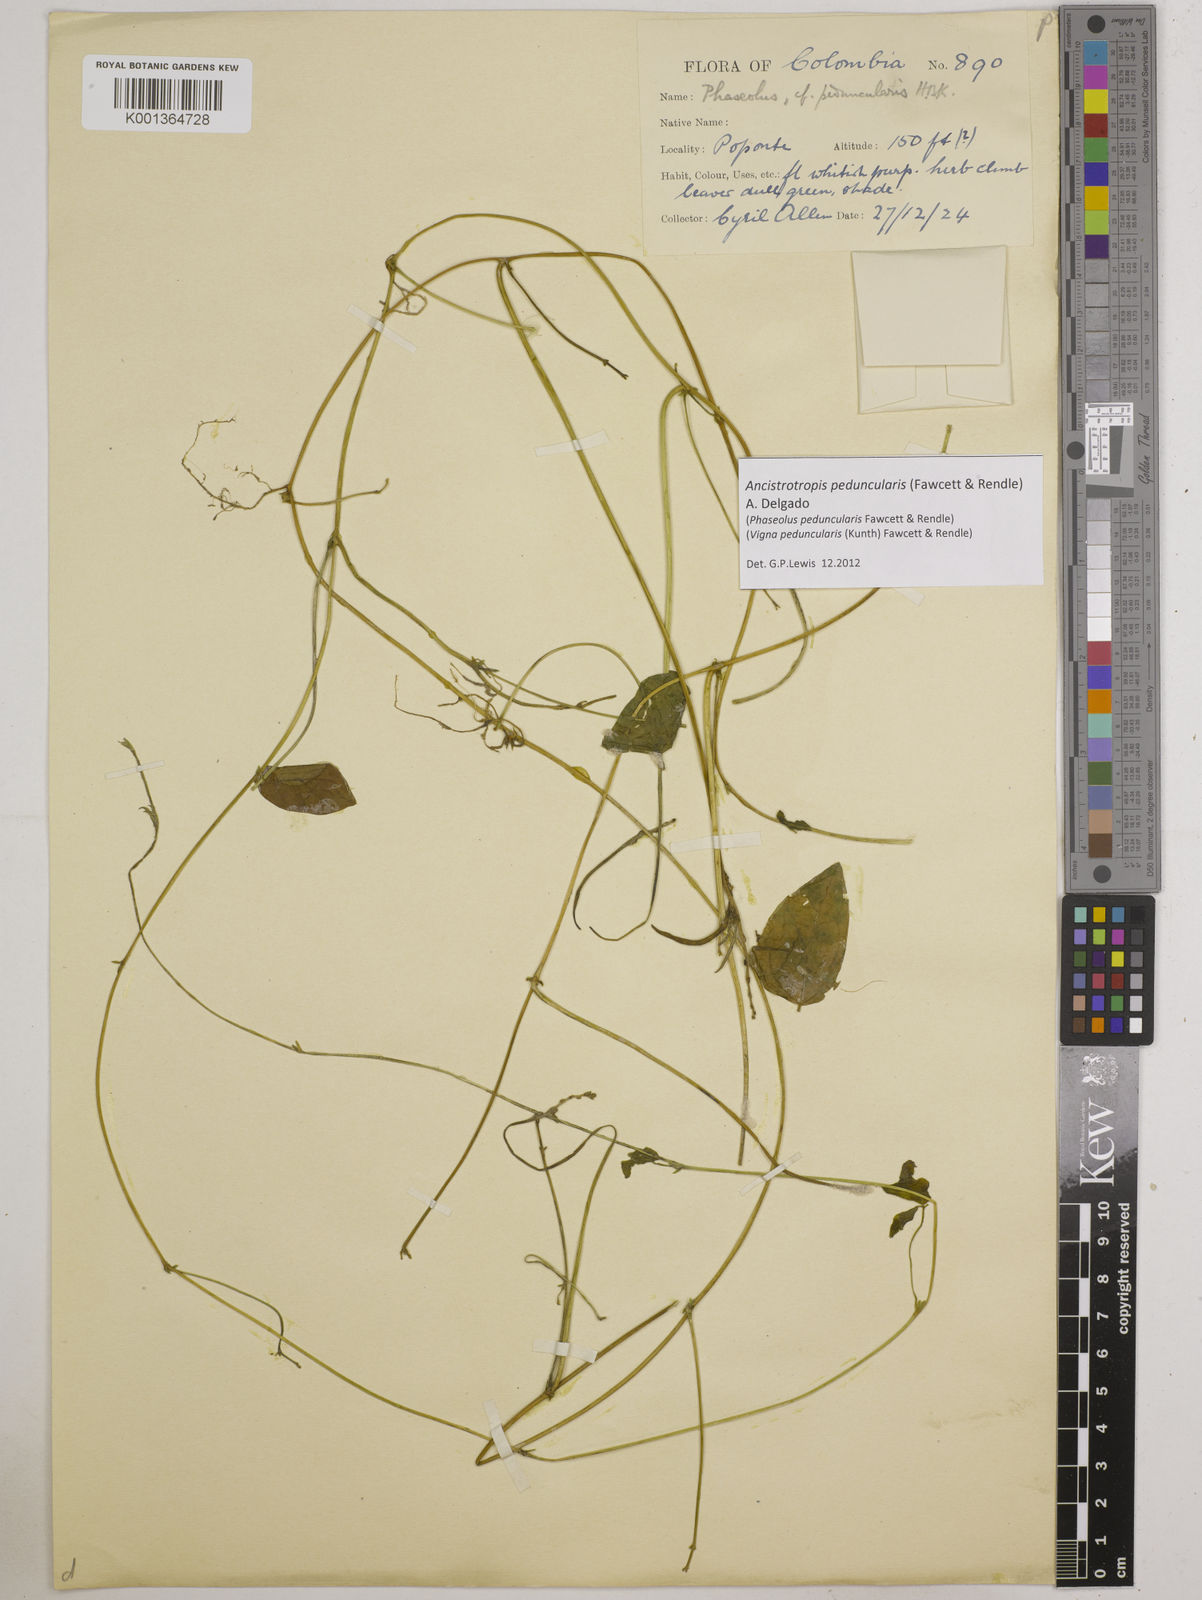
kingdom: Plantae
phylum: Tracheophyta
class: Magnoliopsida
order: Fabales
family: Fabaceae
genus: Ancistrotropis
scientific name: Ancistrotropis peduncularis
